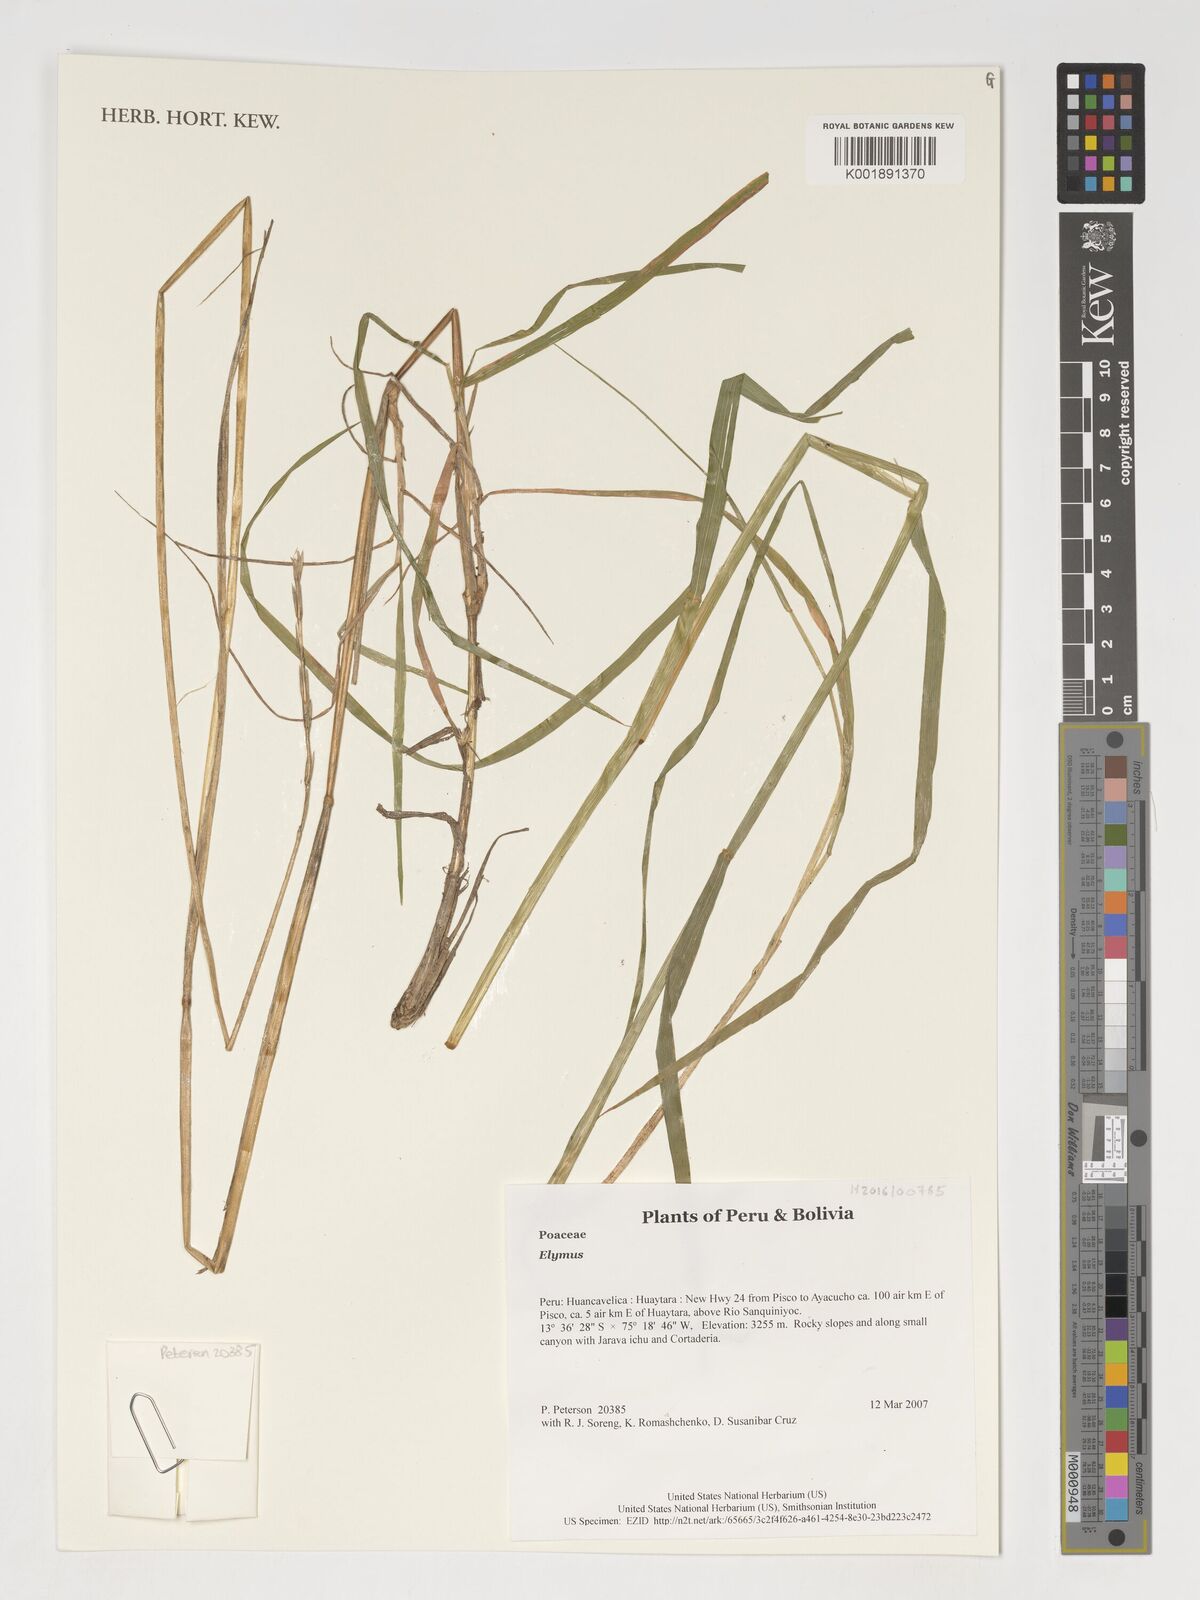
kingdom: Plantae
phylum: Tracheophyta
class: Liliopsida
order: Poales
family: Poaceae
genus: Elymus
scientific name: Elymus
